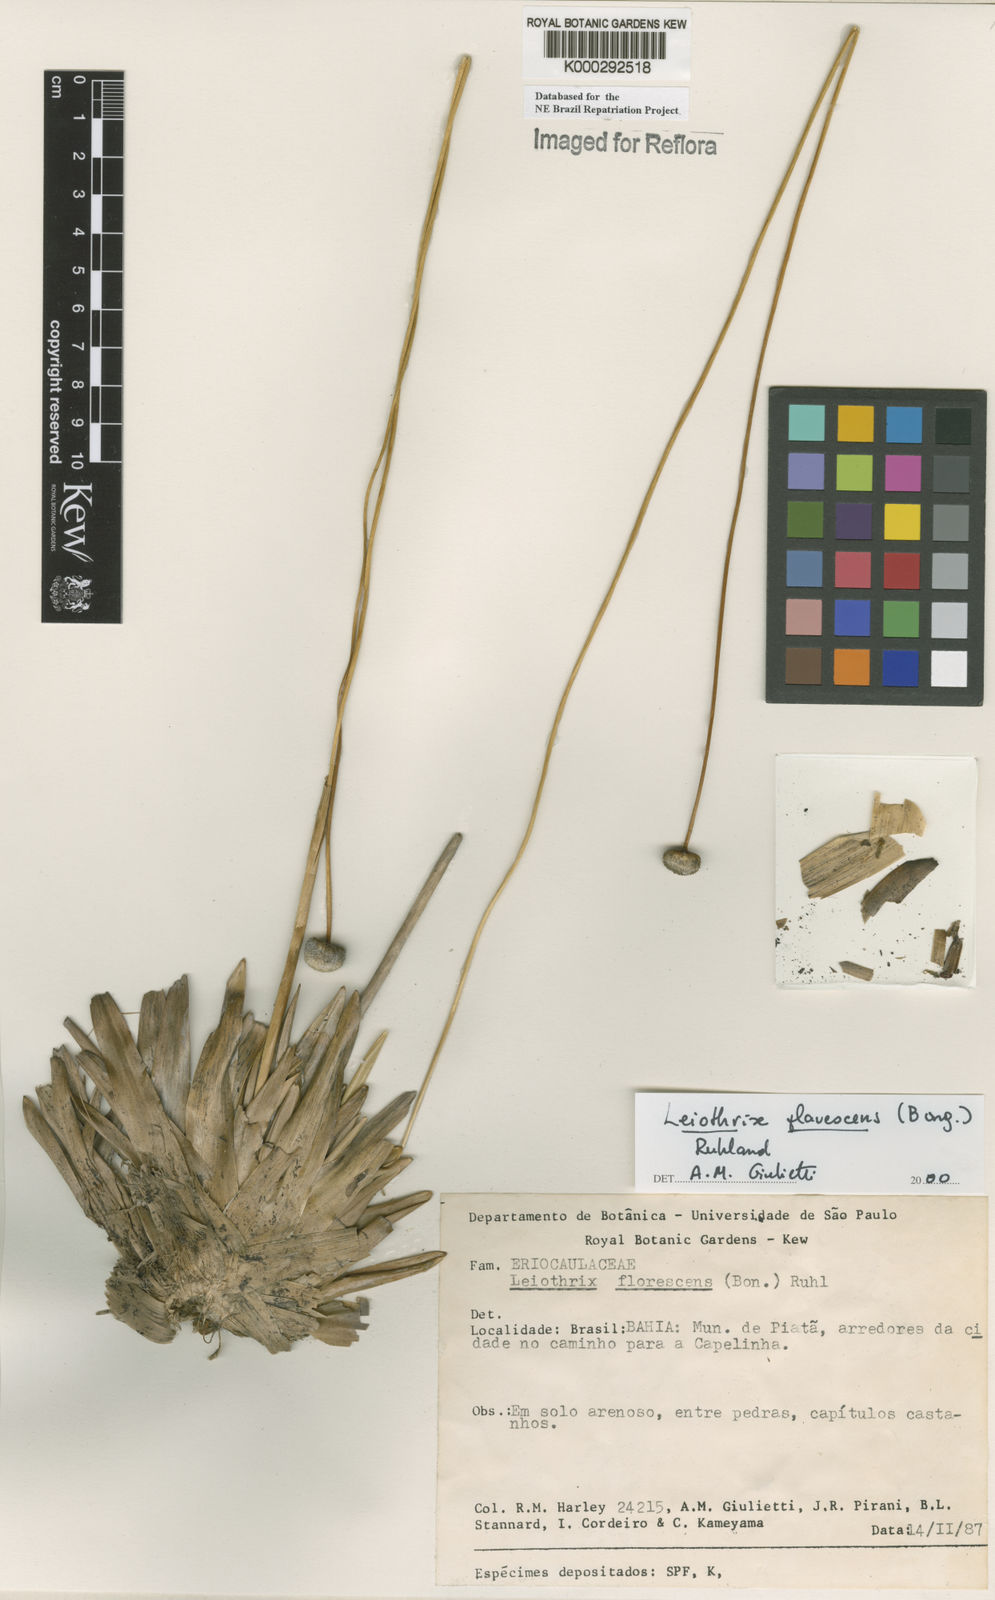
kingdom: Plantae
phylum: Tracheophyta
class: Liliopsida
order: Poales
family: Eriocaulaceae
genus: Leiothrix
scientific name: Leiothrix flavescens
